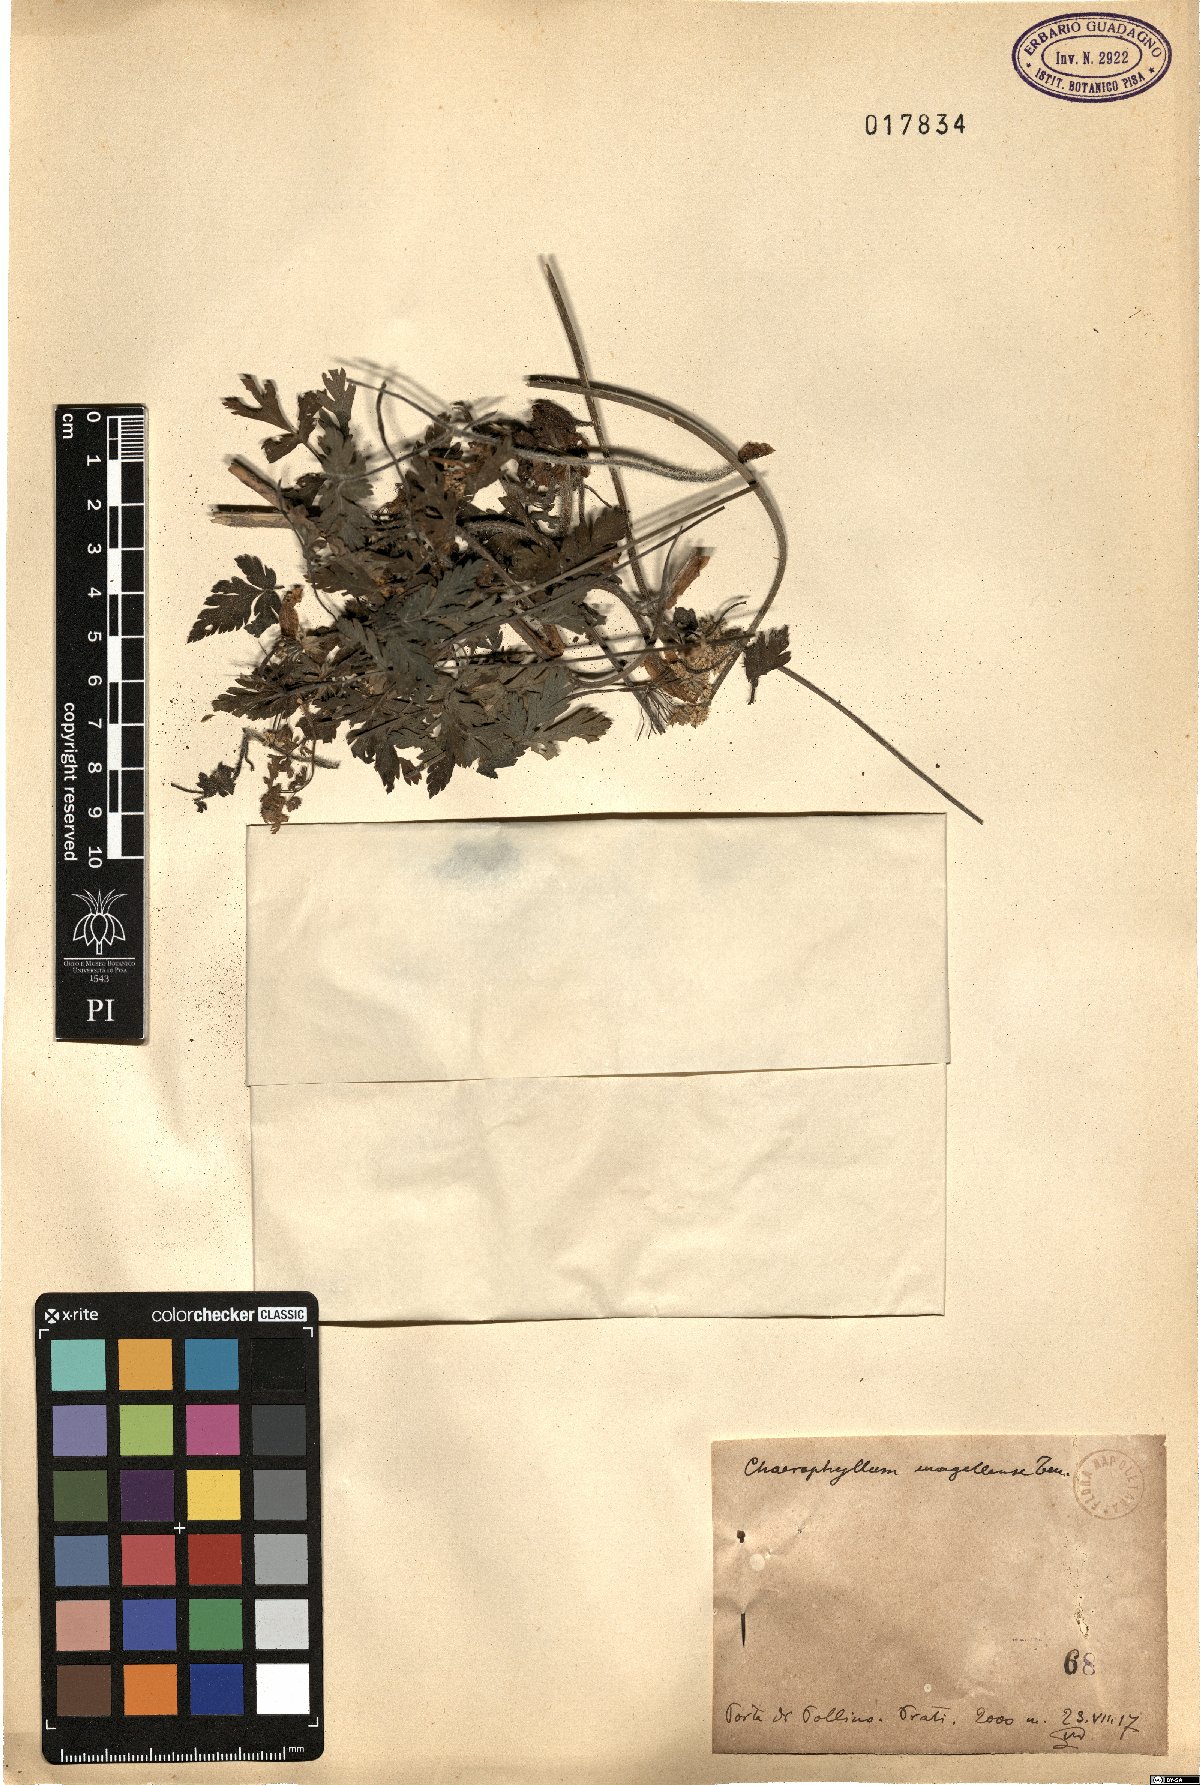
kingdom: Plantae
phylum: Tracheophyta
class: Magnoliopsida
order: Apiales
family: Apiaceae
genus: Chaerophyllum
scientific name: Chaerophyllum hirsutum
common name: Hairy chervil
